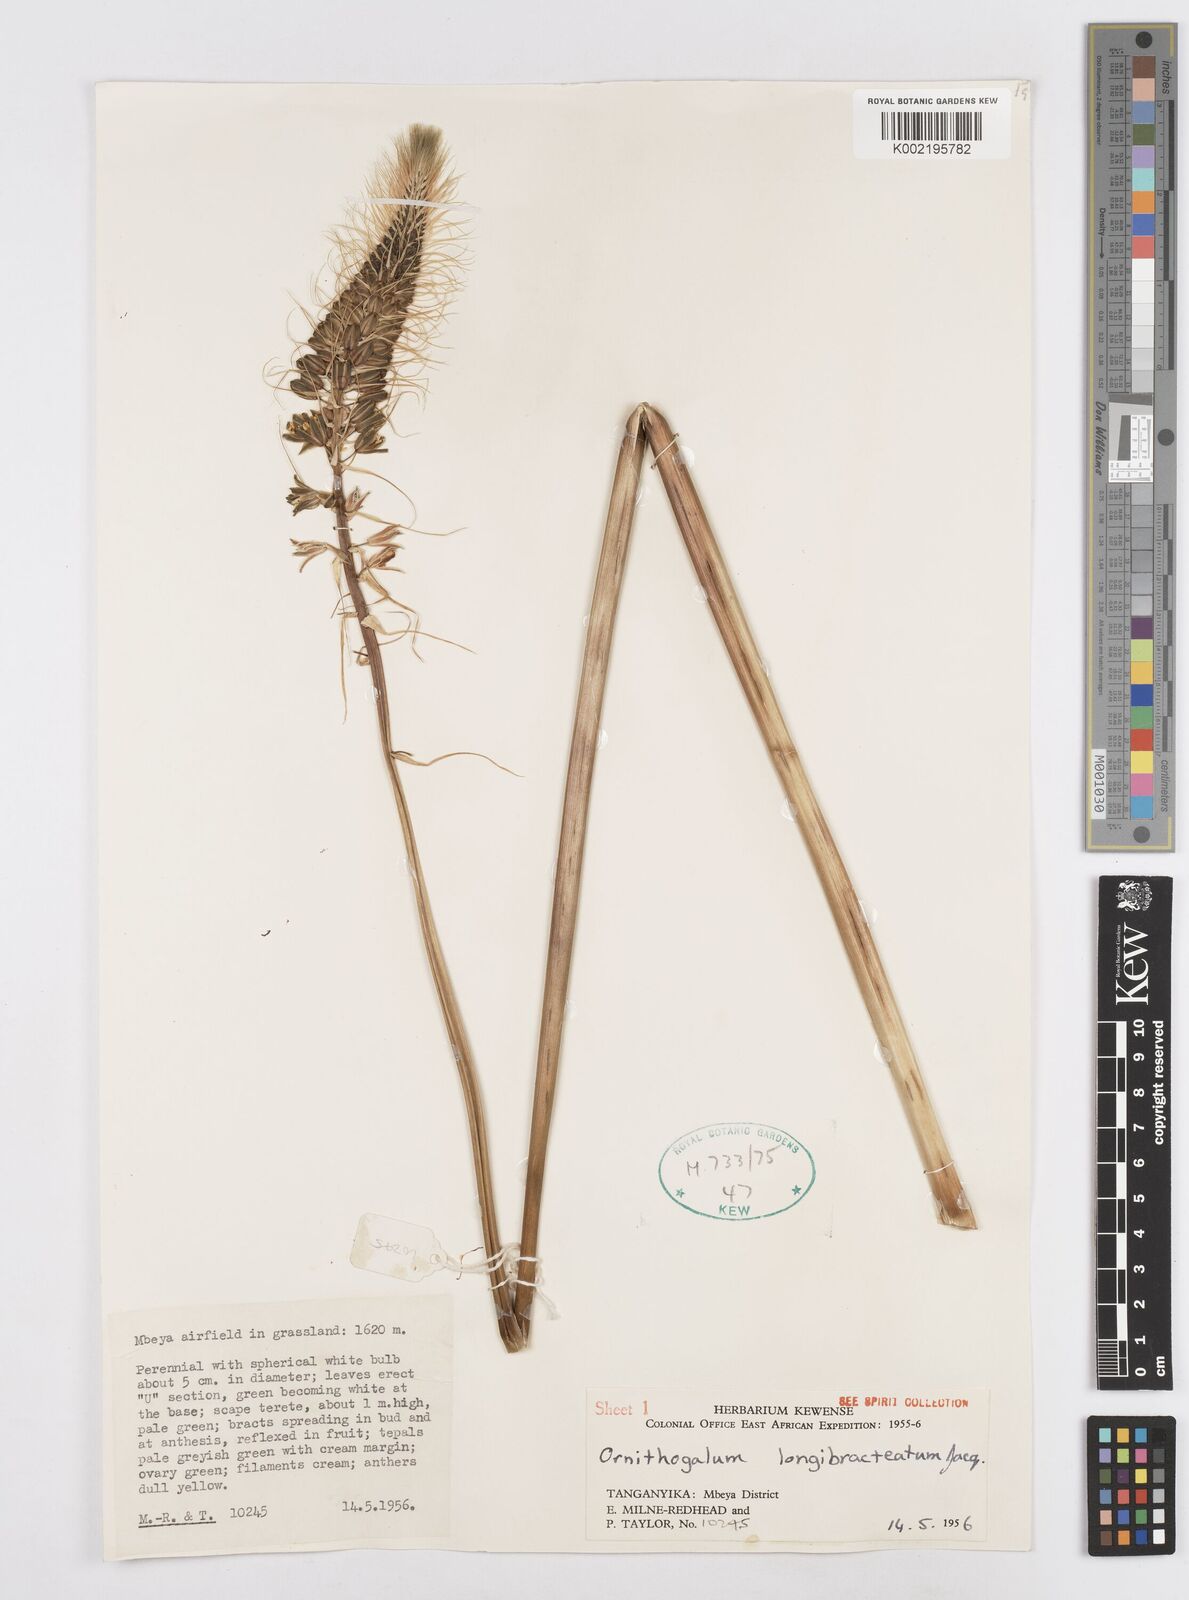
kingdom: Plantae
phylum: Tracheophyta
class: Liliopsida
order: Asparagales
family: Asparagaceae
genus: Ornithogalum
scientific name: Ornithogalum
